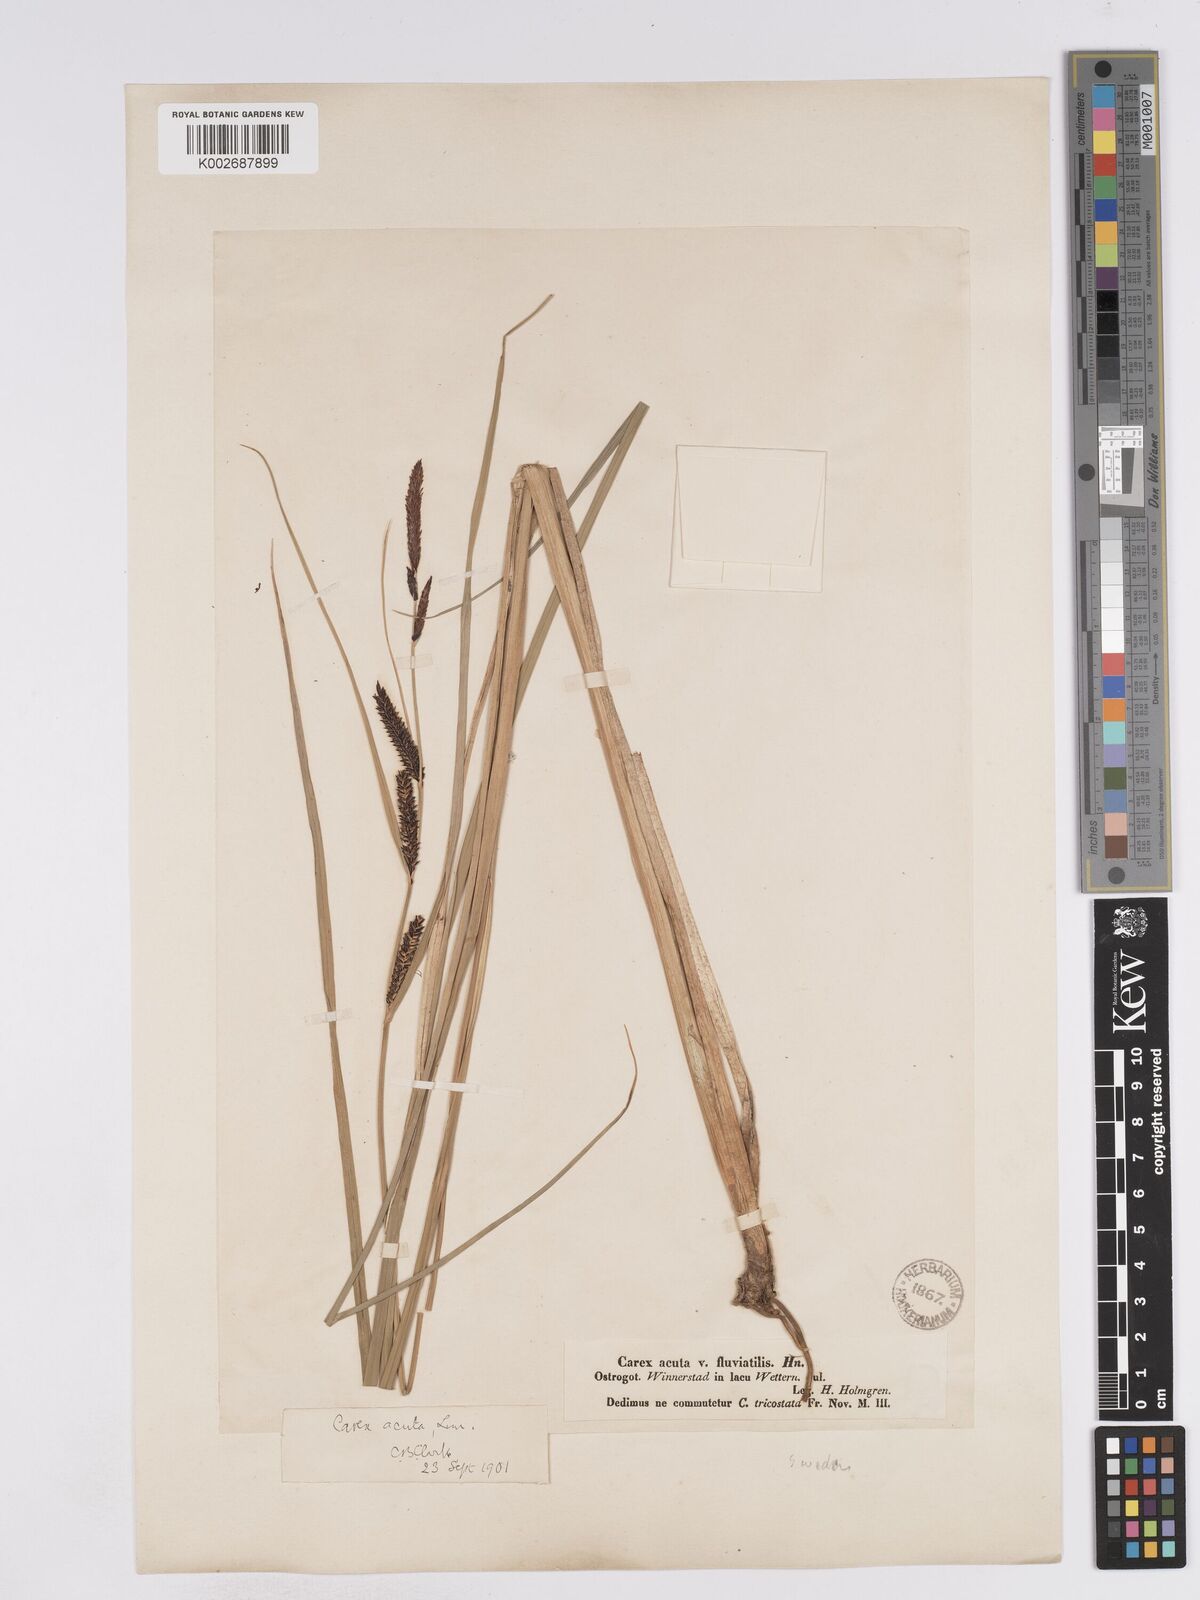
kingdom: Plantae
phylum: Tracheophyta
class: Liliopsida
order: Poales
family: Cyperaceae
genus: Carex
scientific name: Carex acuta
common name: Slender tufted-sedge
